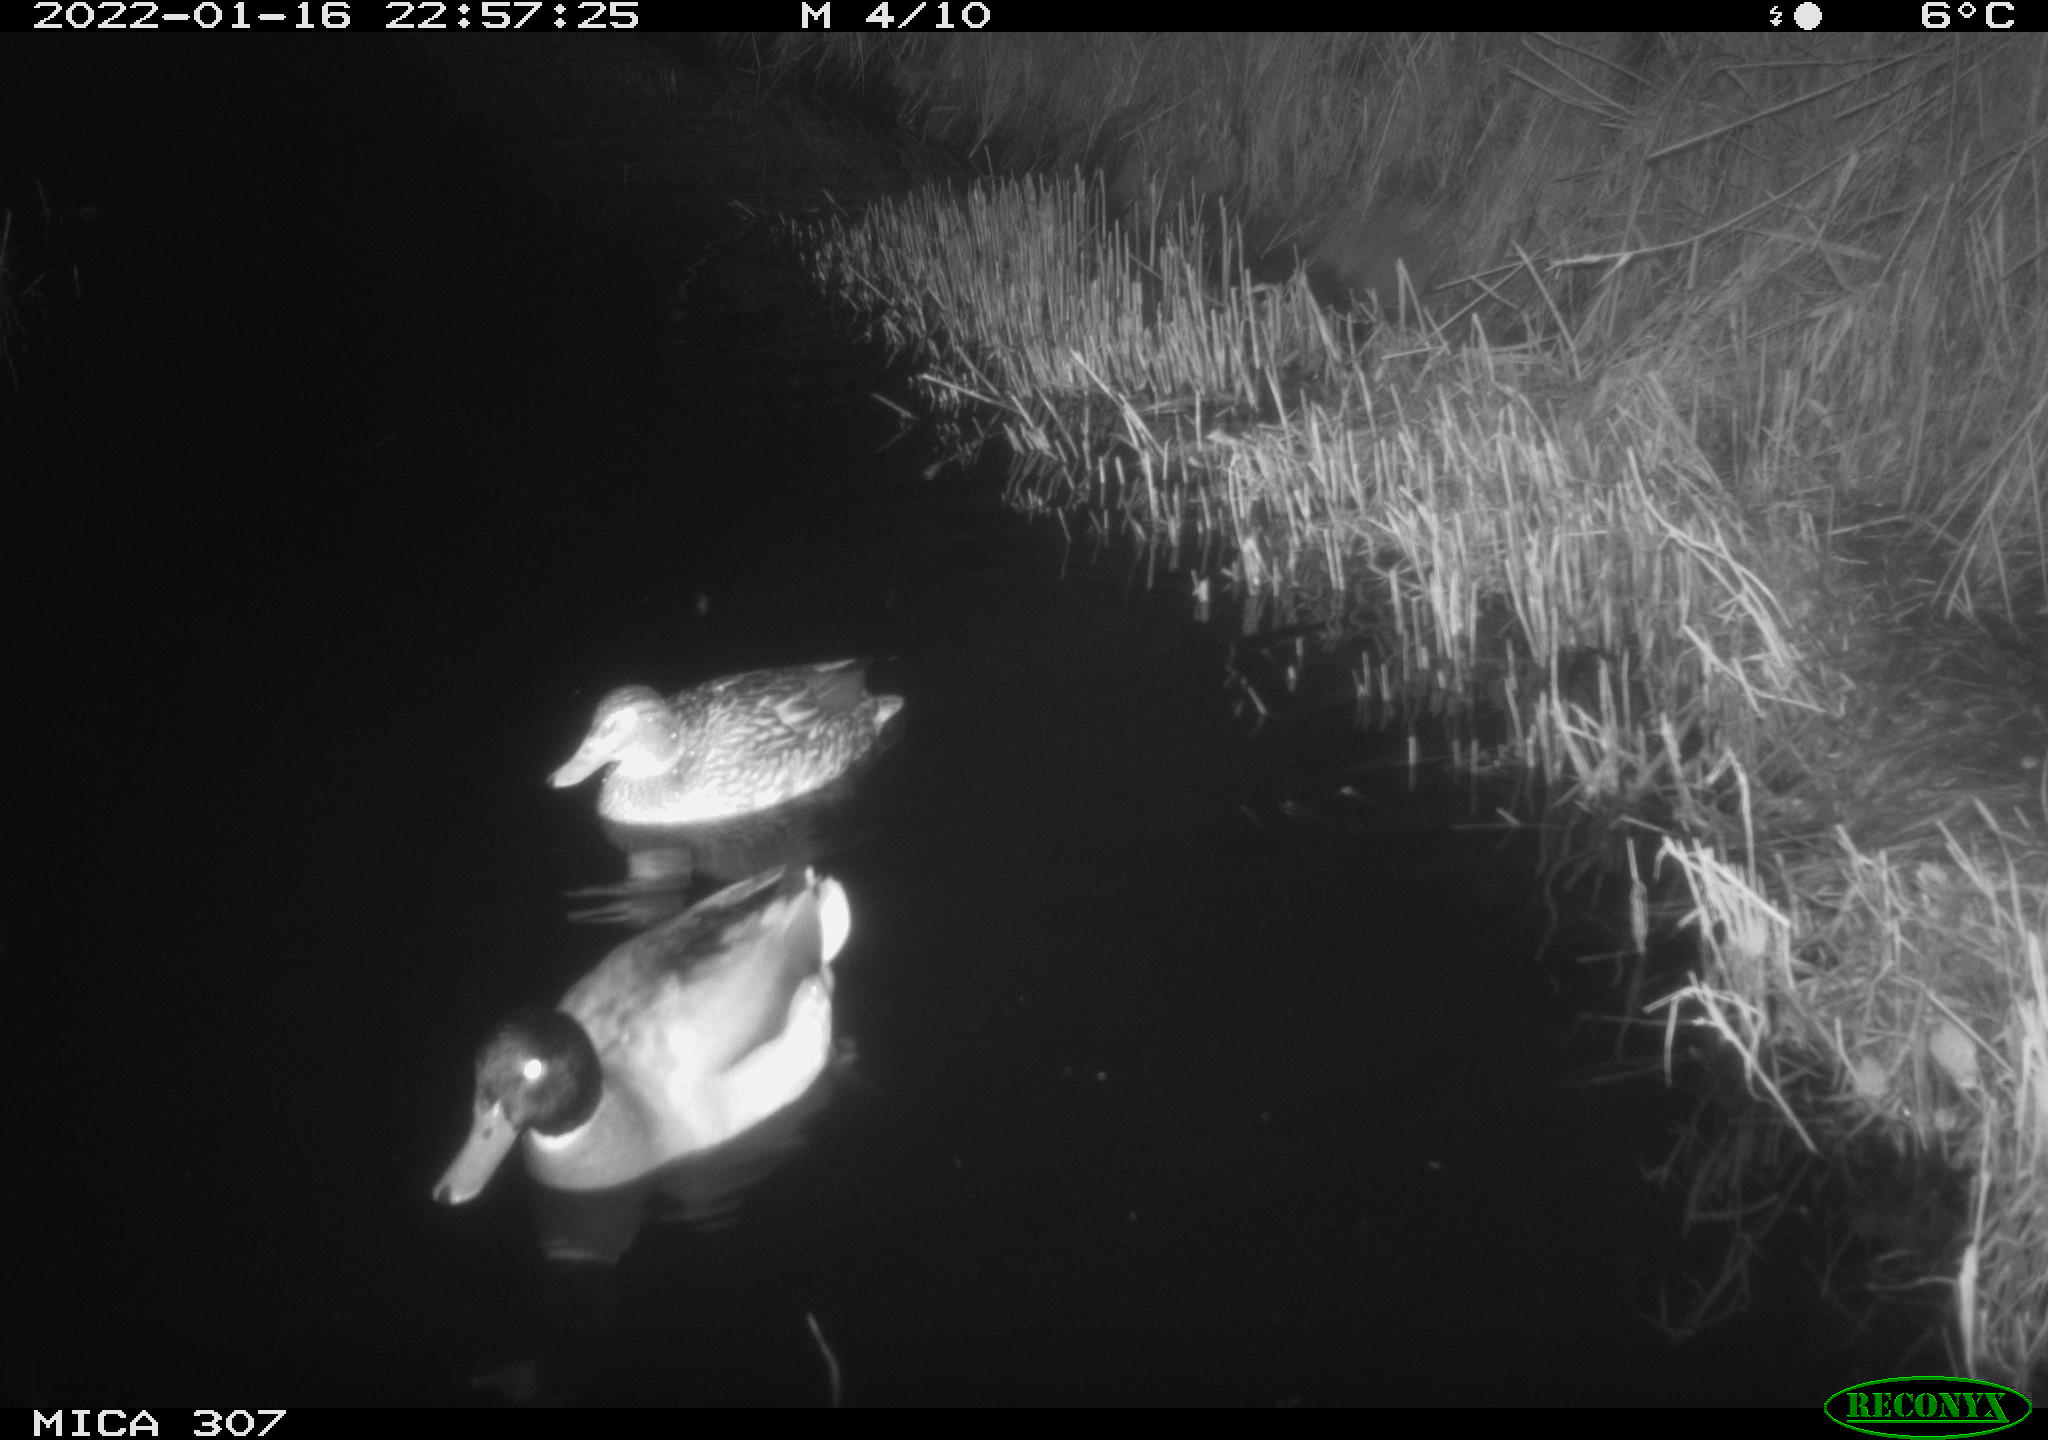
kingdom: Animalia
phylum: Chordata
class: Aves
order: Anseriformes
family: Anatidae
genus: Anas
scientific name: Anas
